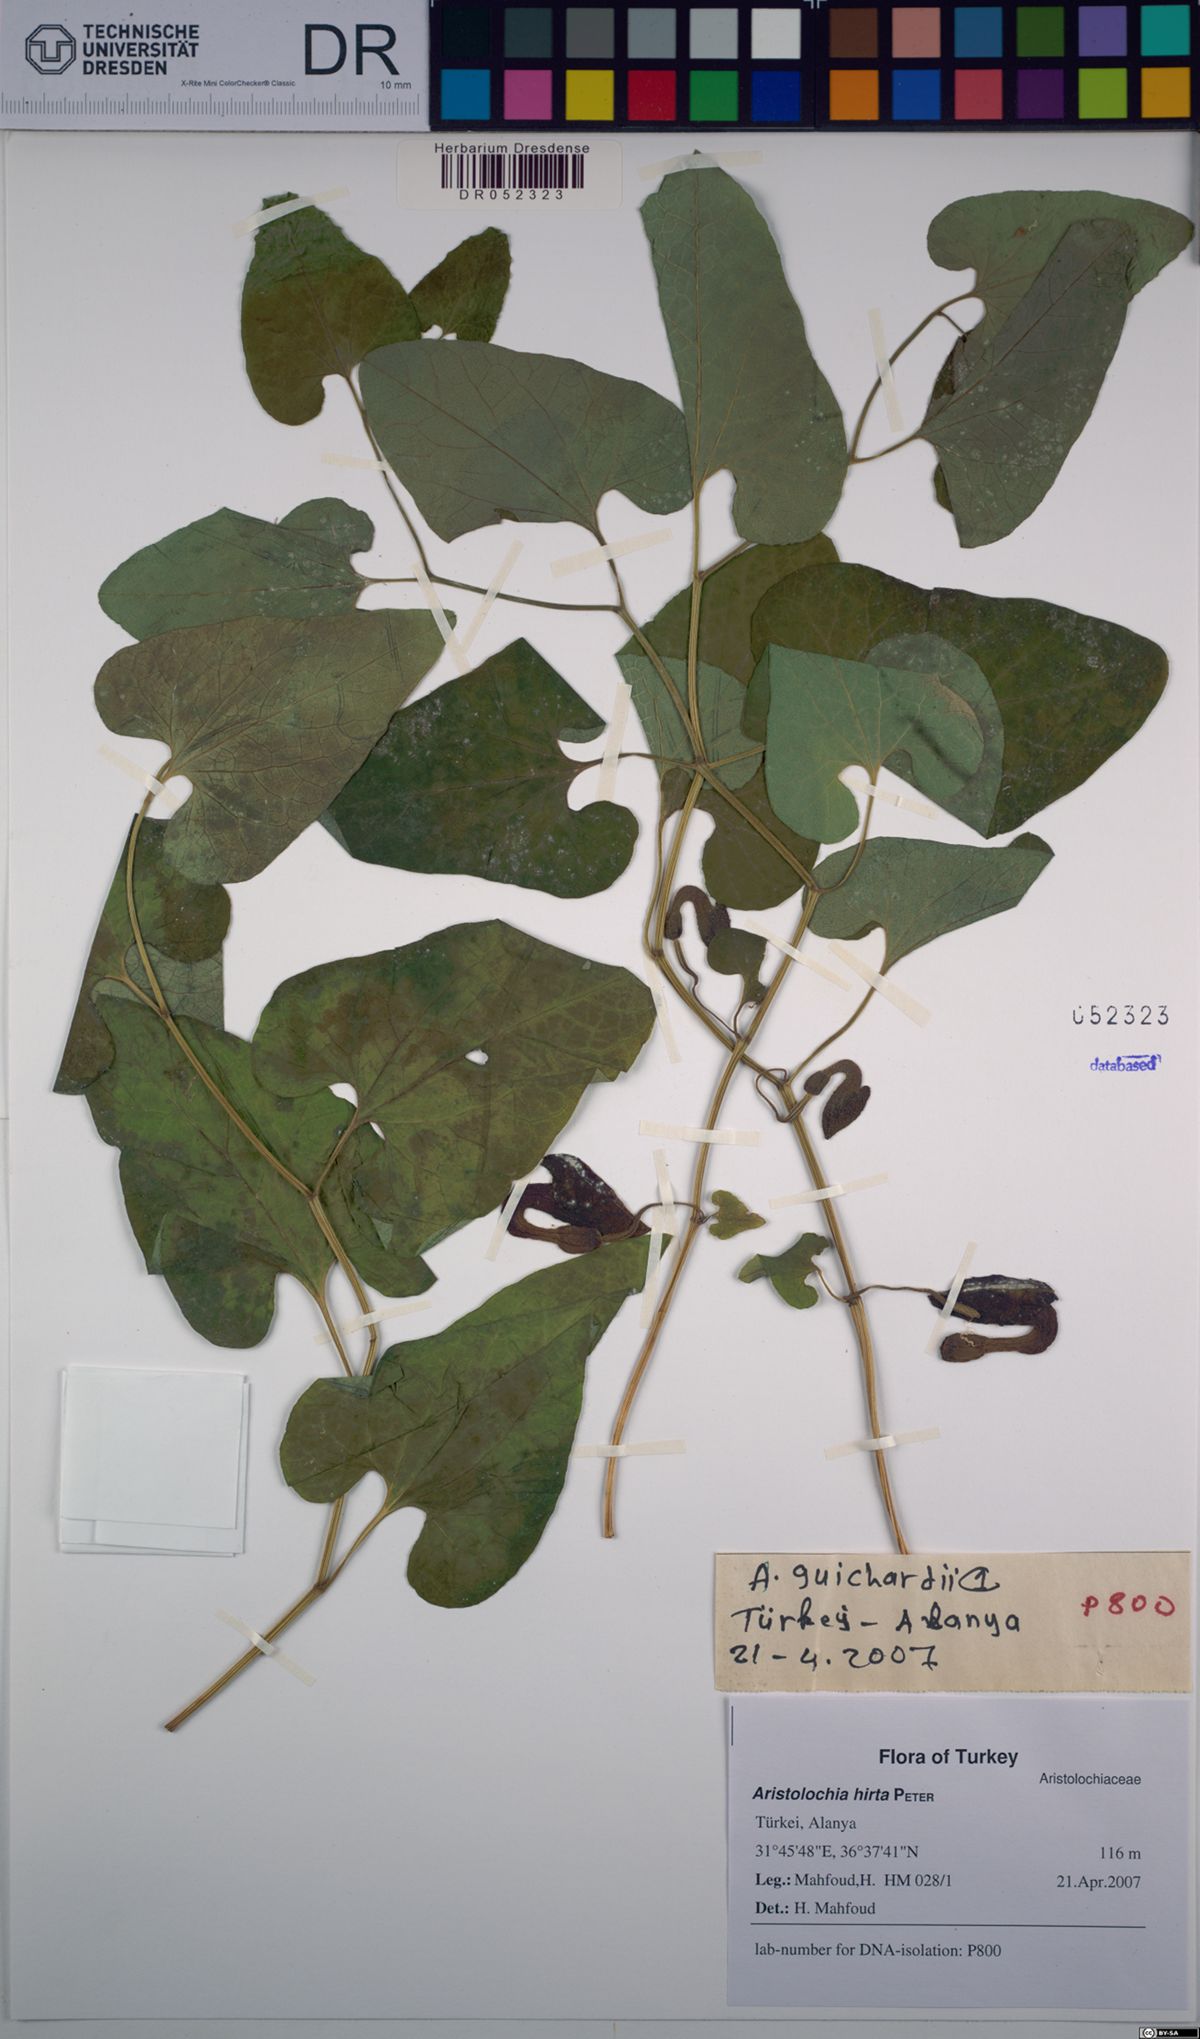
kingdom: Plantae
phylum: Tracheophyta
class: Magnoliopsida
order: Piperales
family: Aristolochiaceae
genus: Aristolochia
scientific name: Aristolochia hockii
